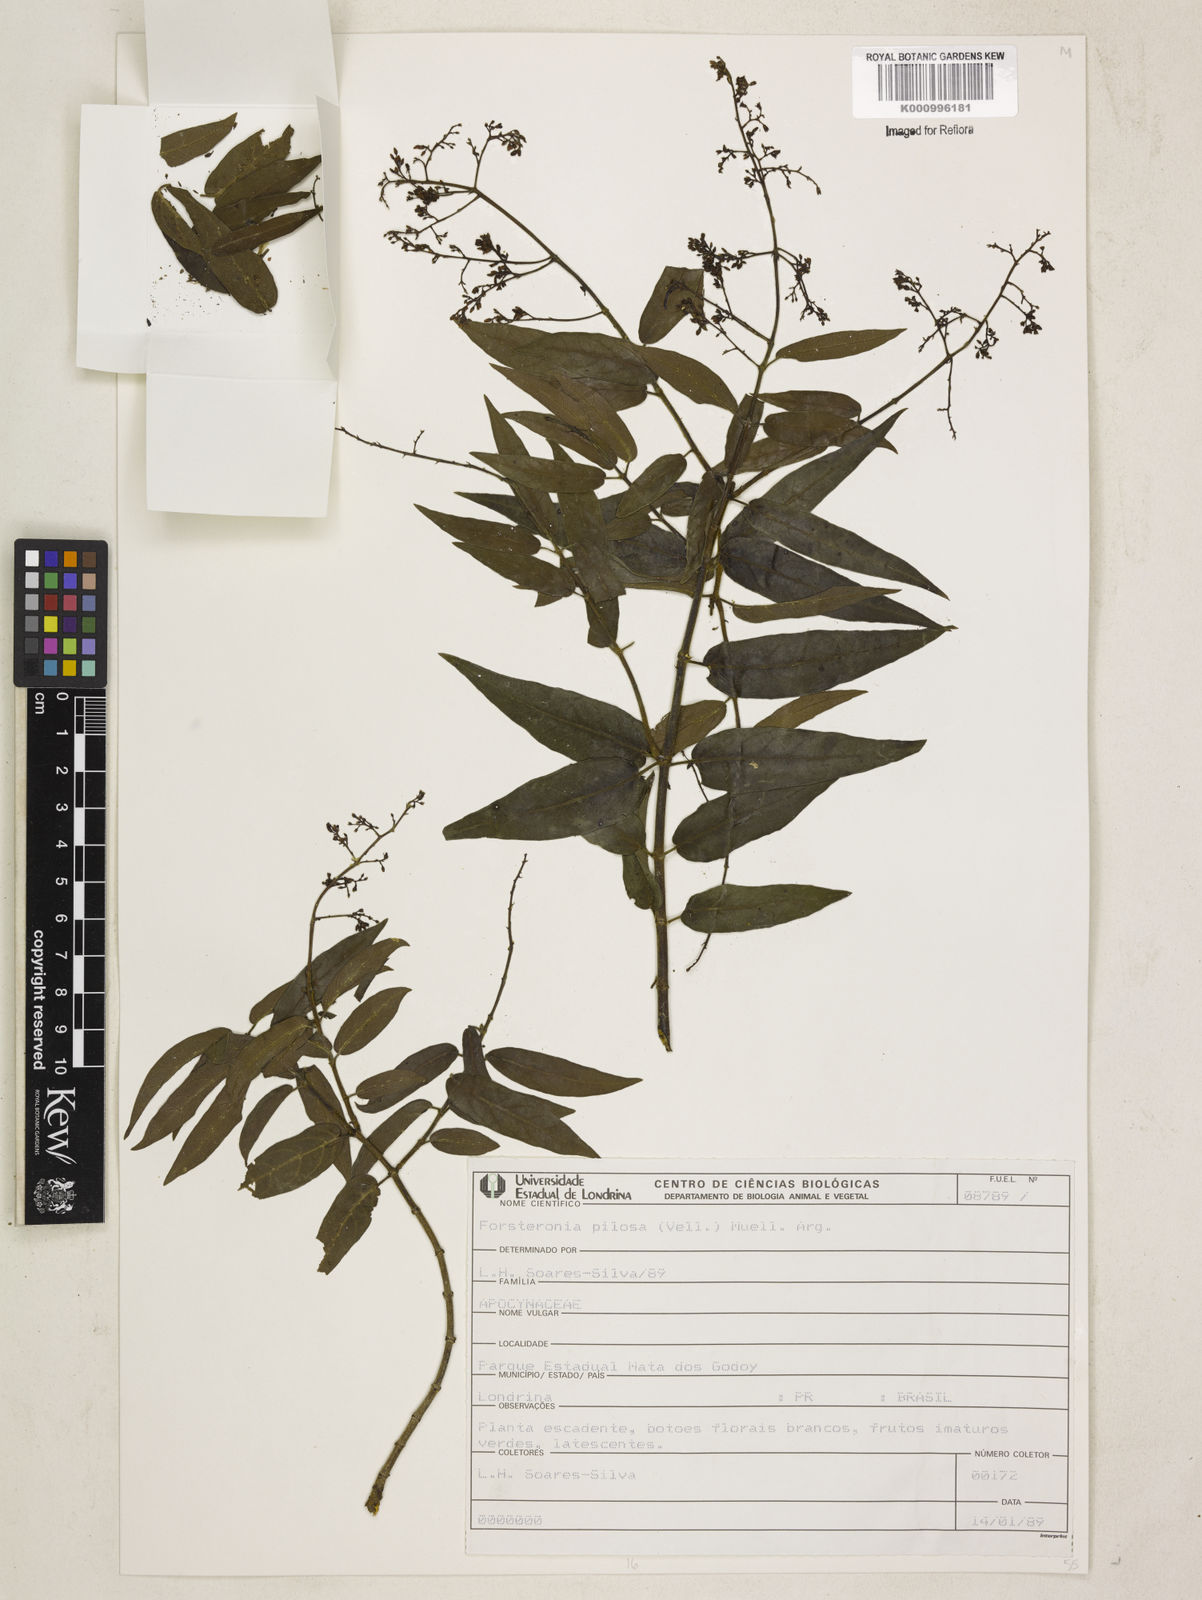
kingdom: Plantae
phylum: Tracheophyta
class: Magnoliopsida
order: Gentianales
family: Apocynaceae
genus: Forsteronia
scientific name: Forsteronia
